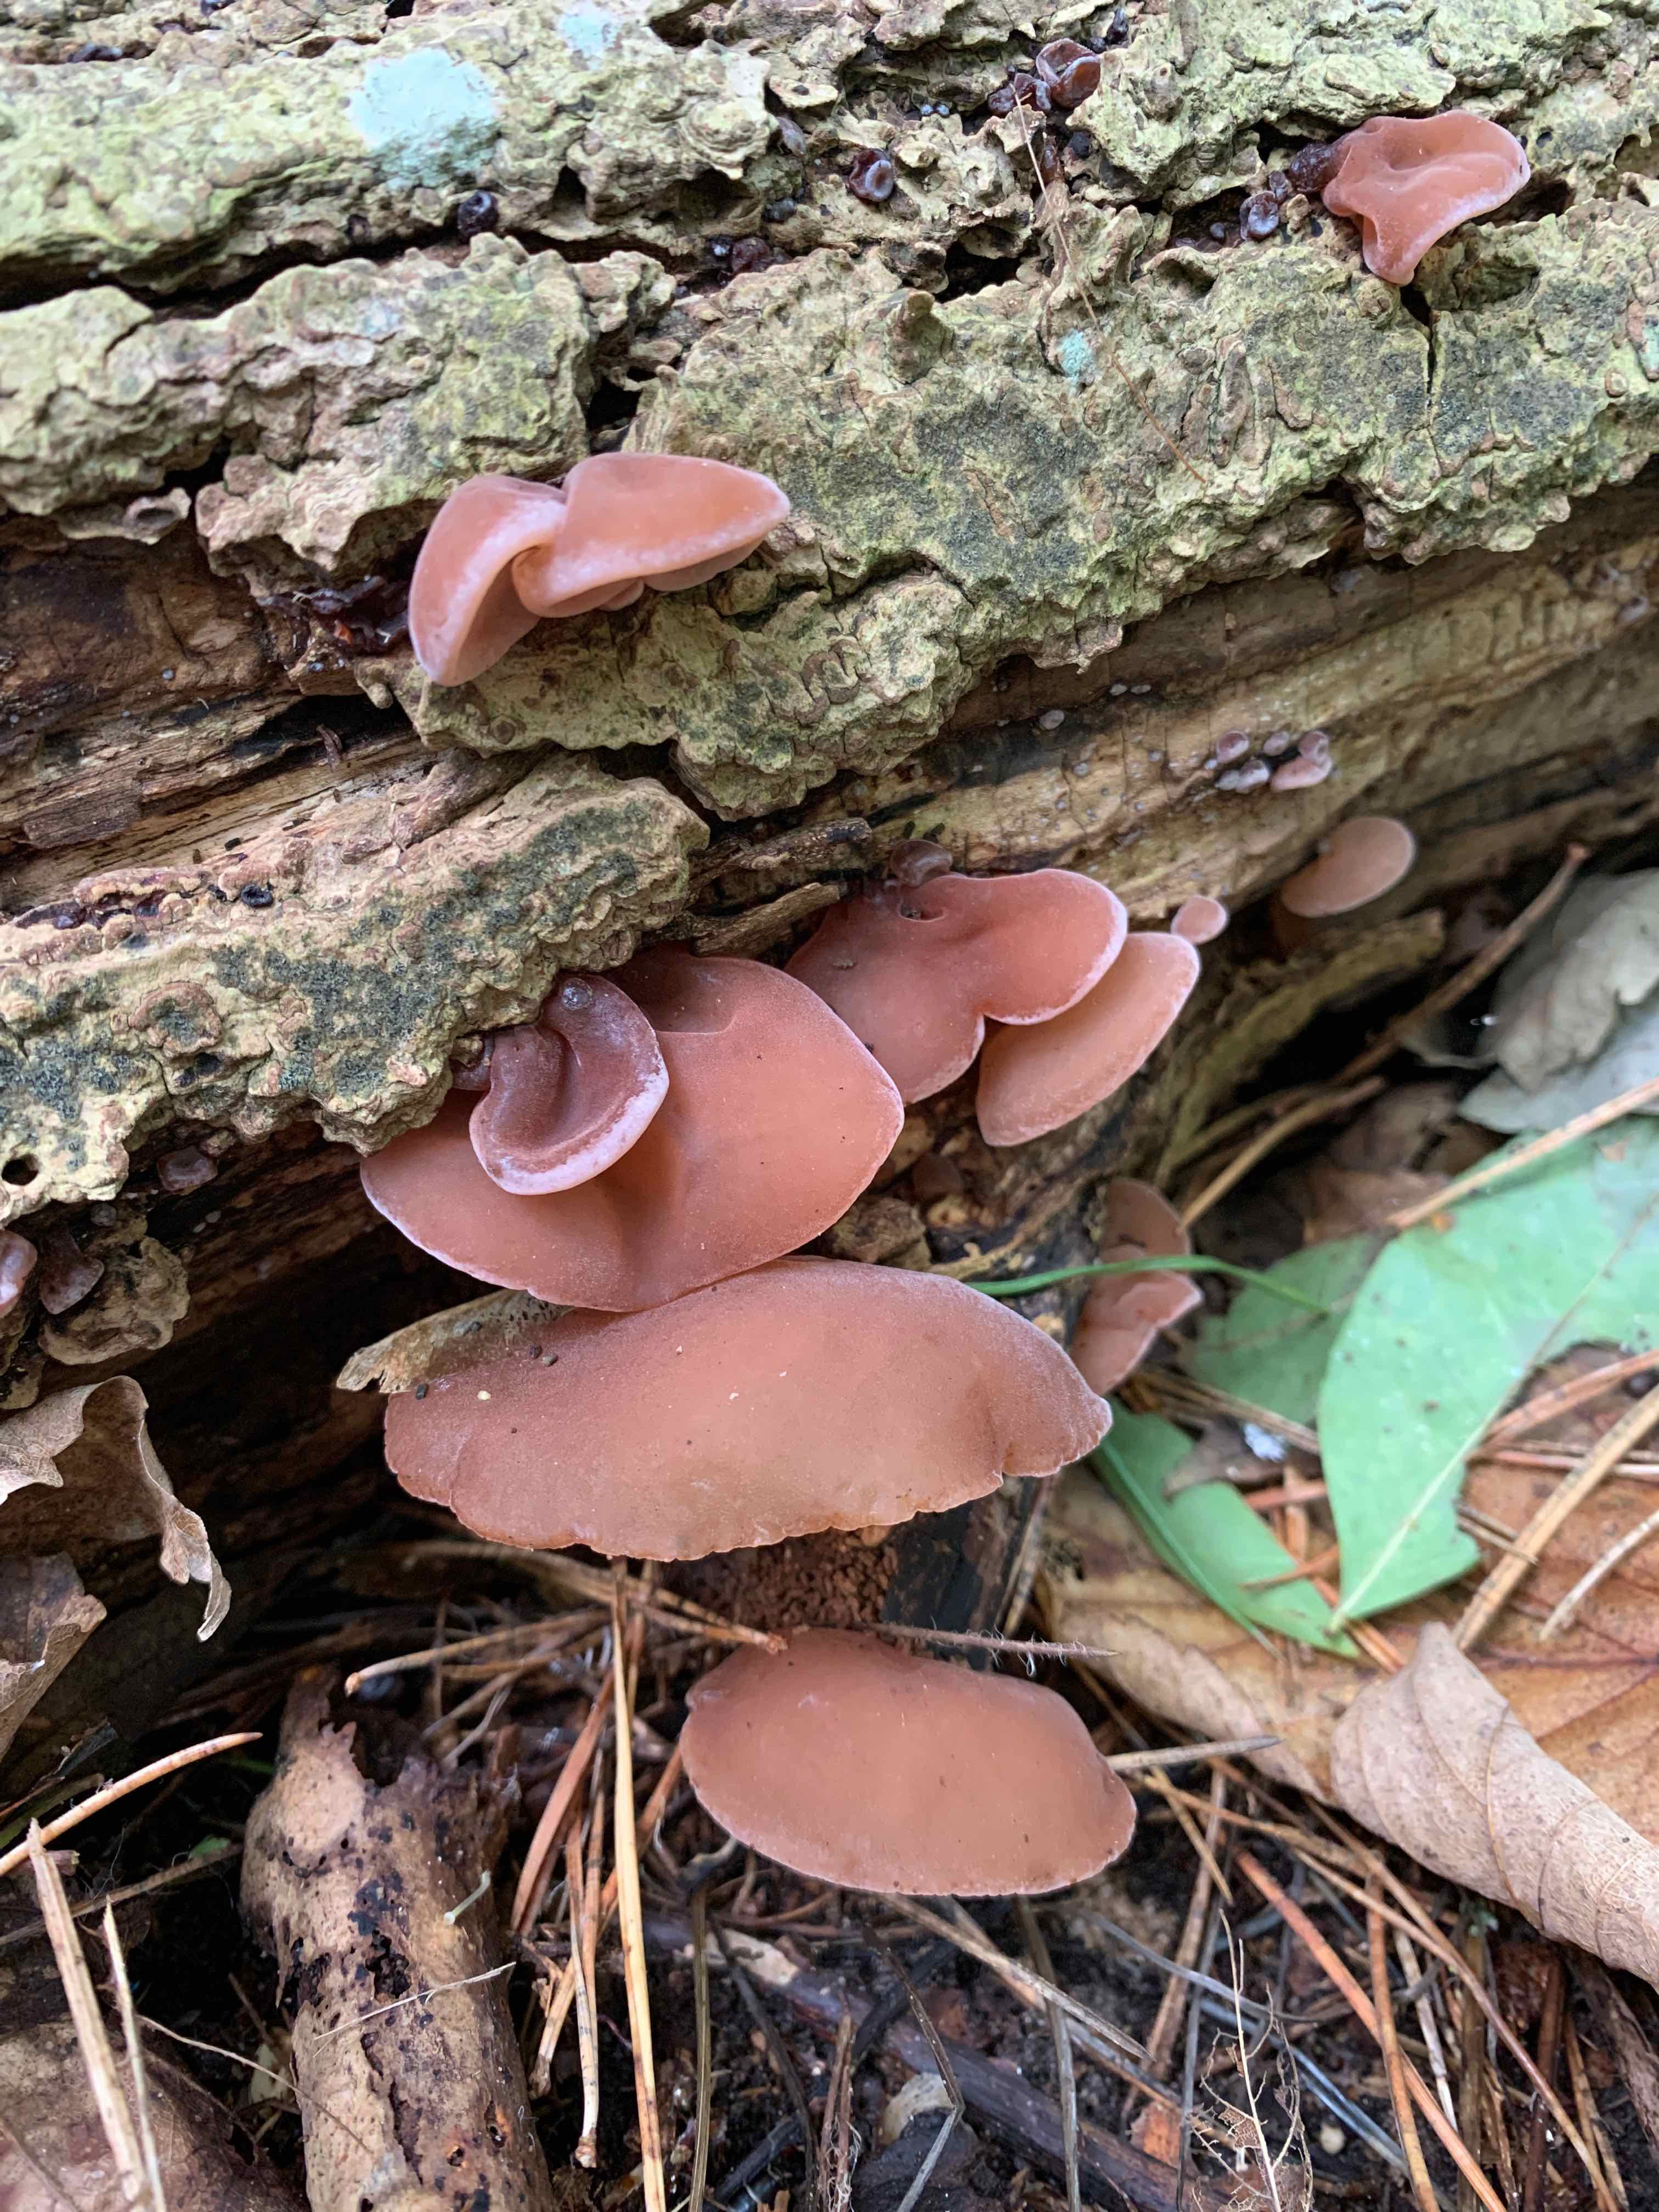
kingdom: Fungi
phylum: Basidiomycota
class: Agaricomycetes
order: Auriculariales
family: Auriculariaceae
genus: Auricularia
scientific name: Auricularia auricula-judae
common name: almindelig judasøre
